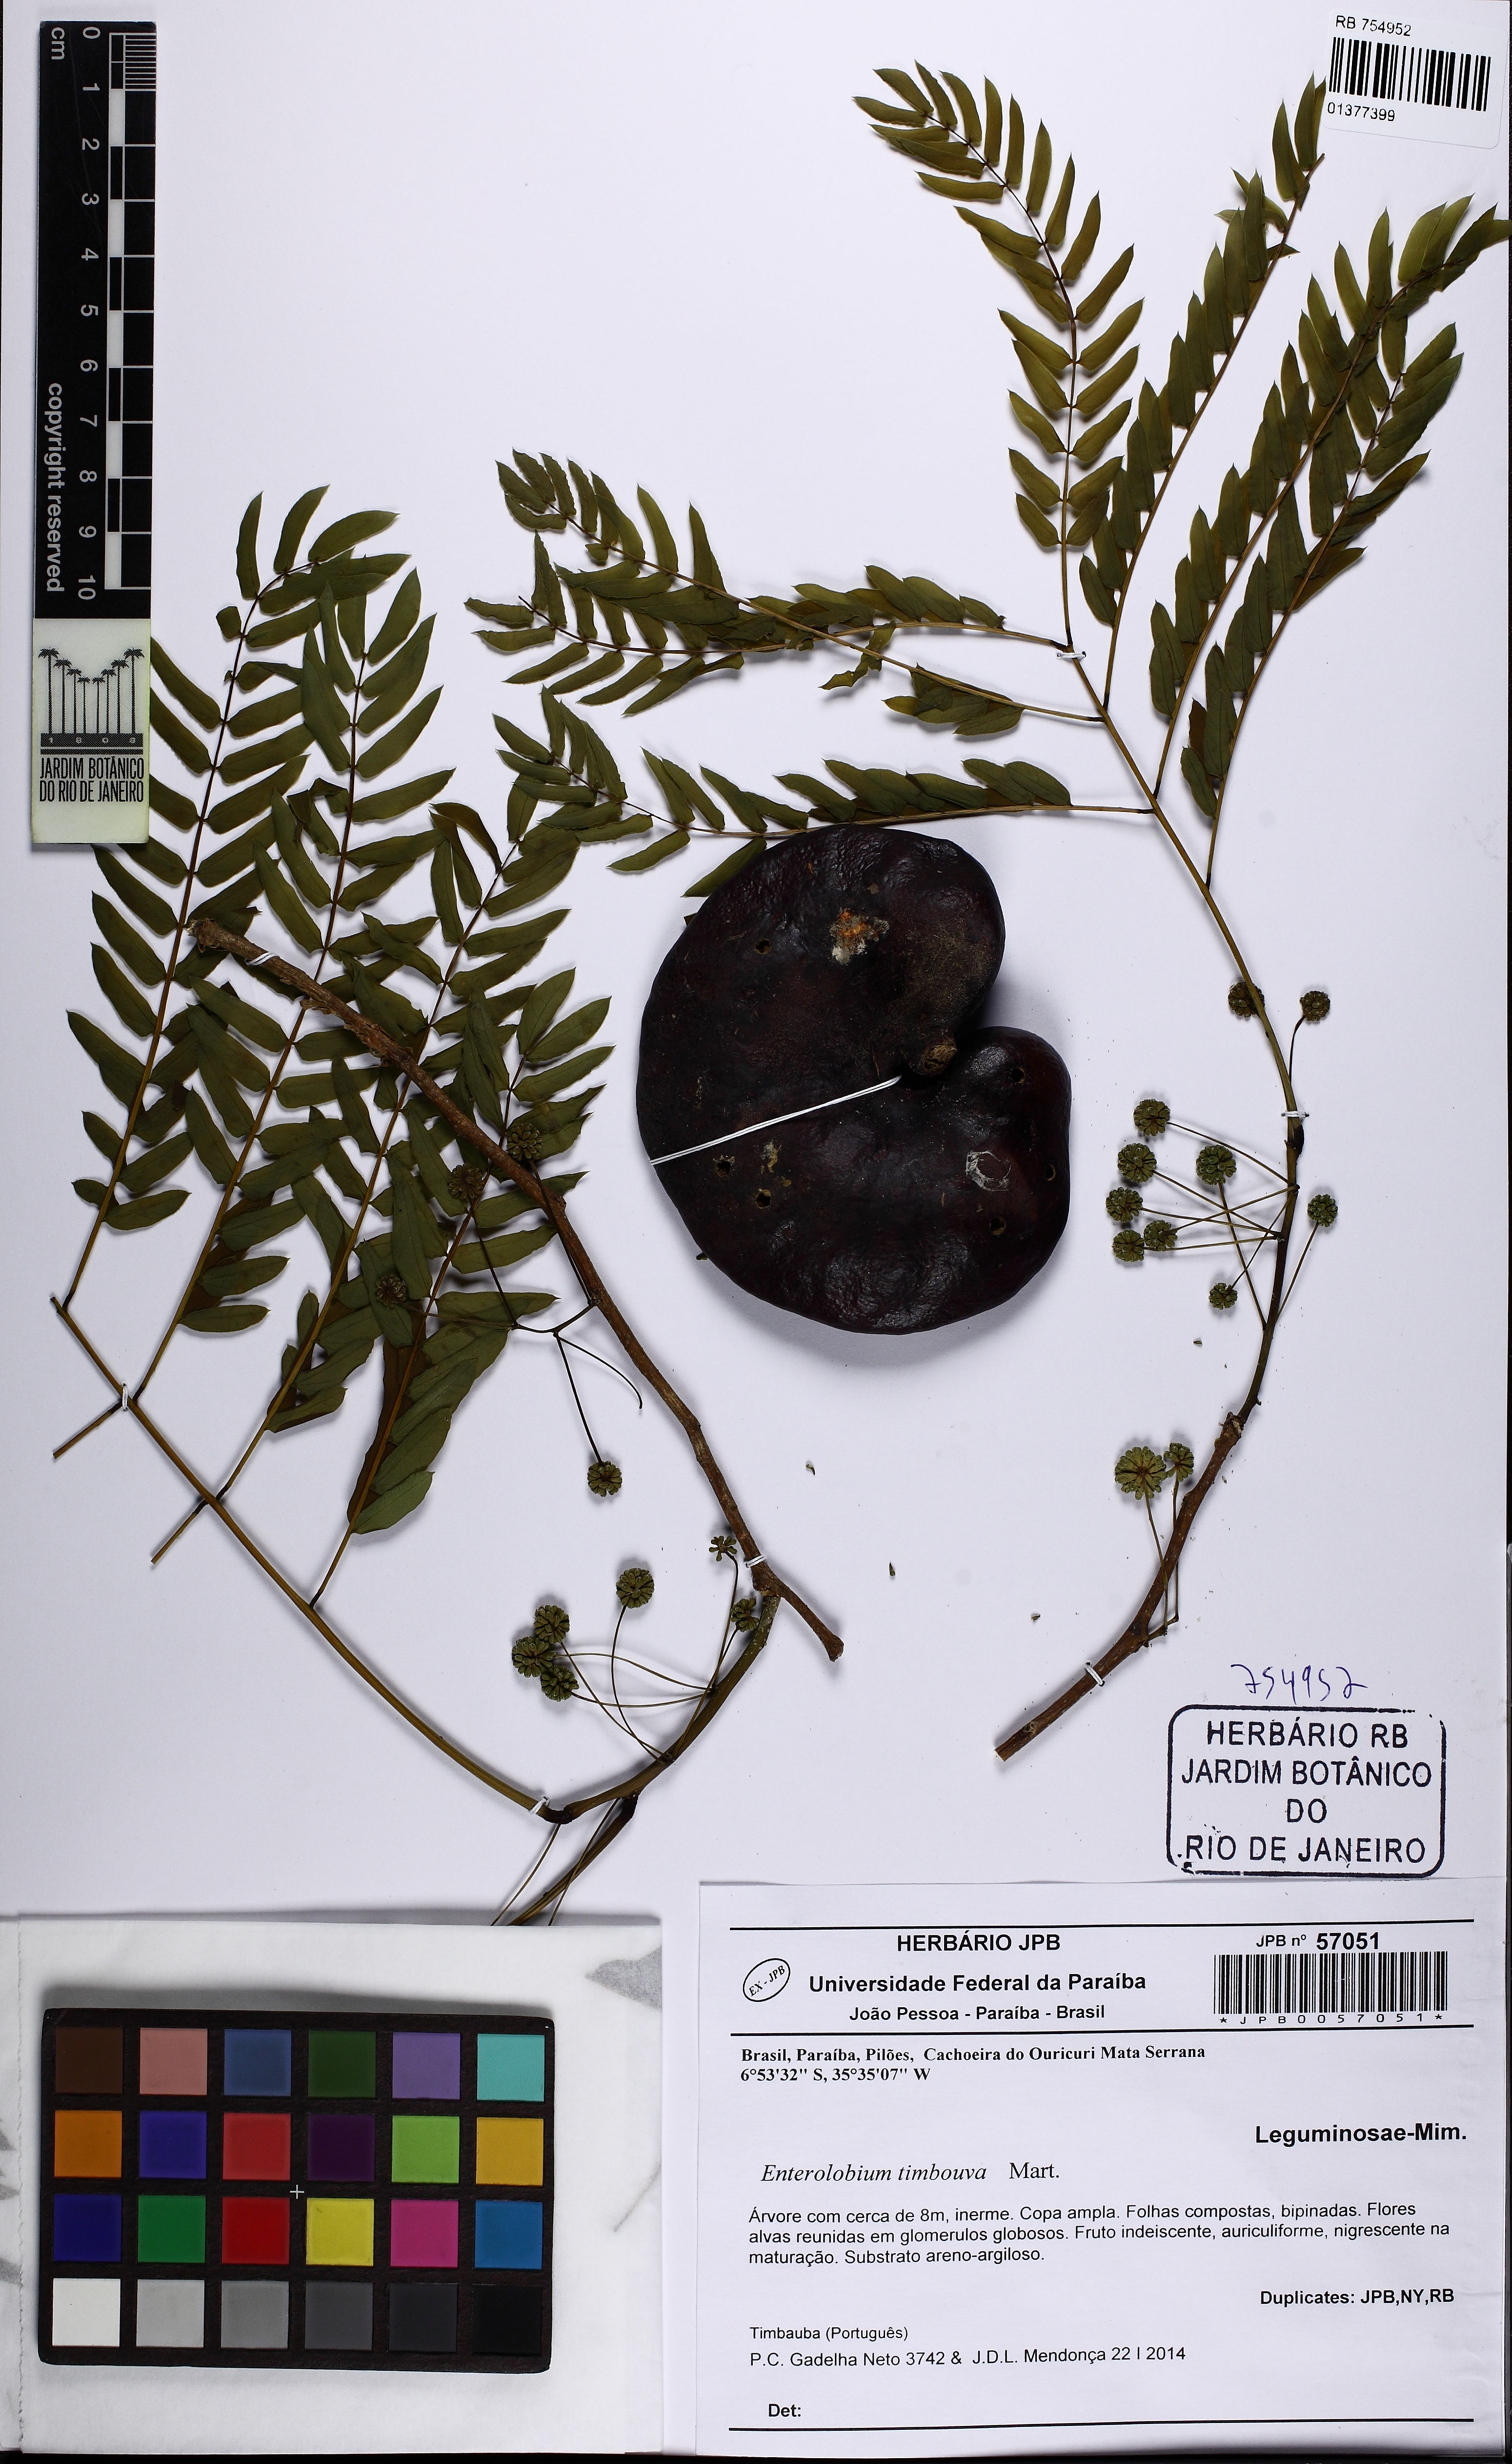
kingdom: Plantae
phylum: Tracheophyta
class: Magnoliopsida
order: Fabales
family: Fabaceae
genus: Enterolobium
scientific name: Enterolobium timbouva
